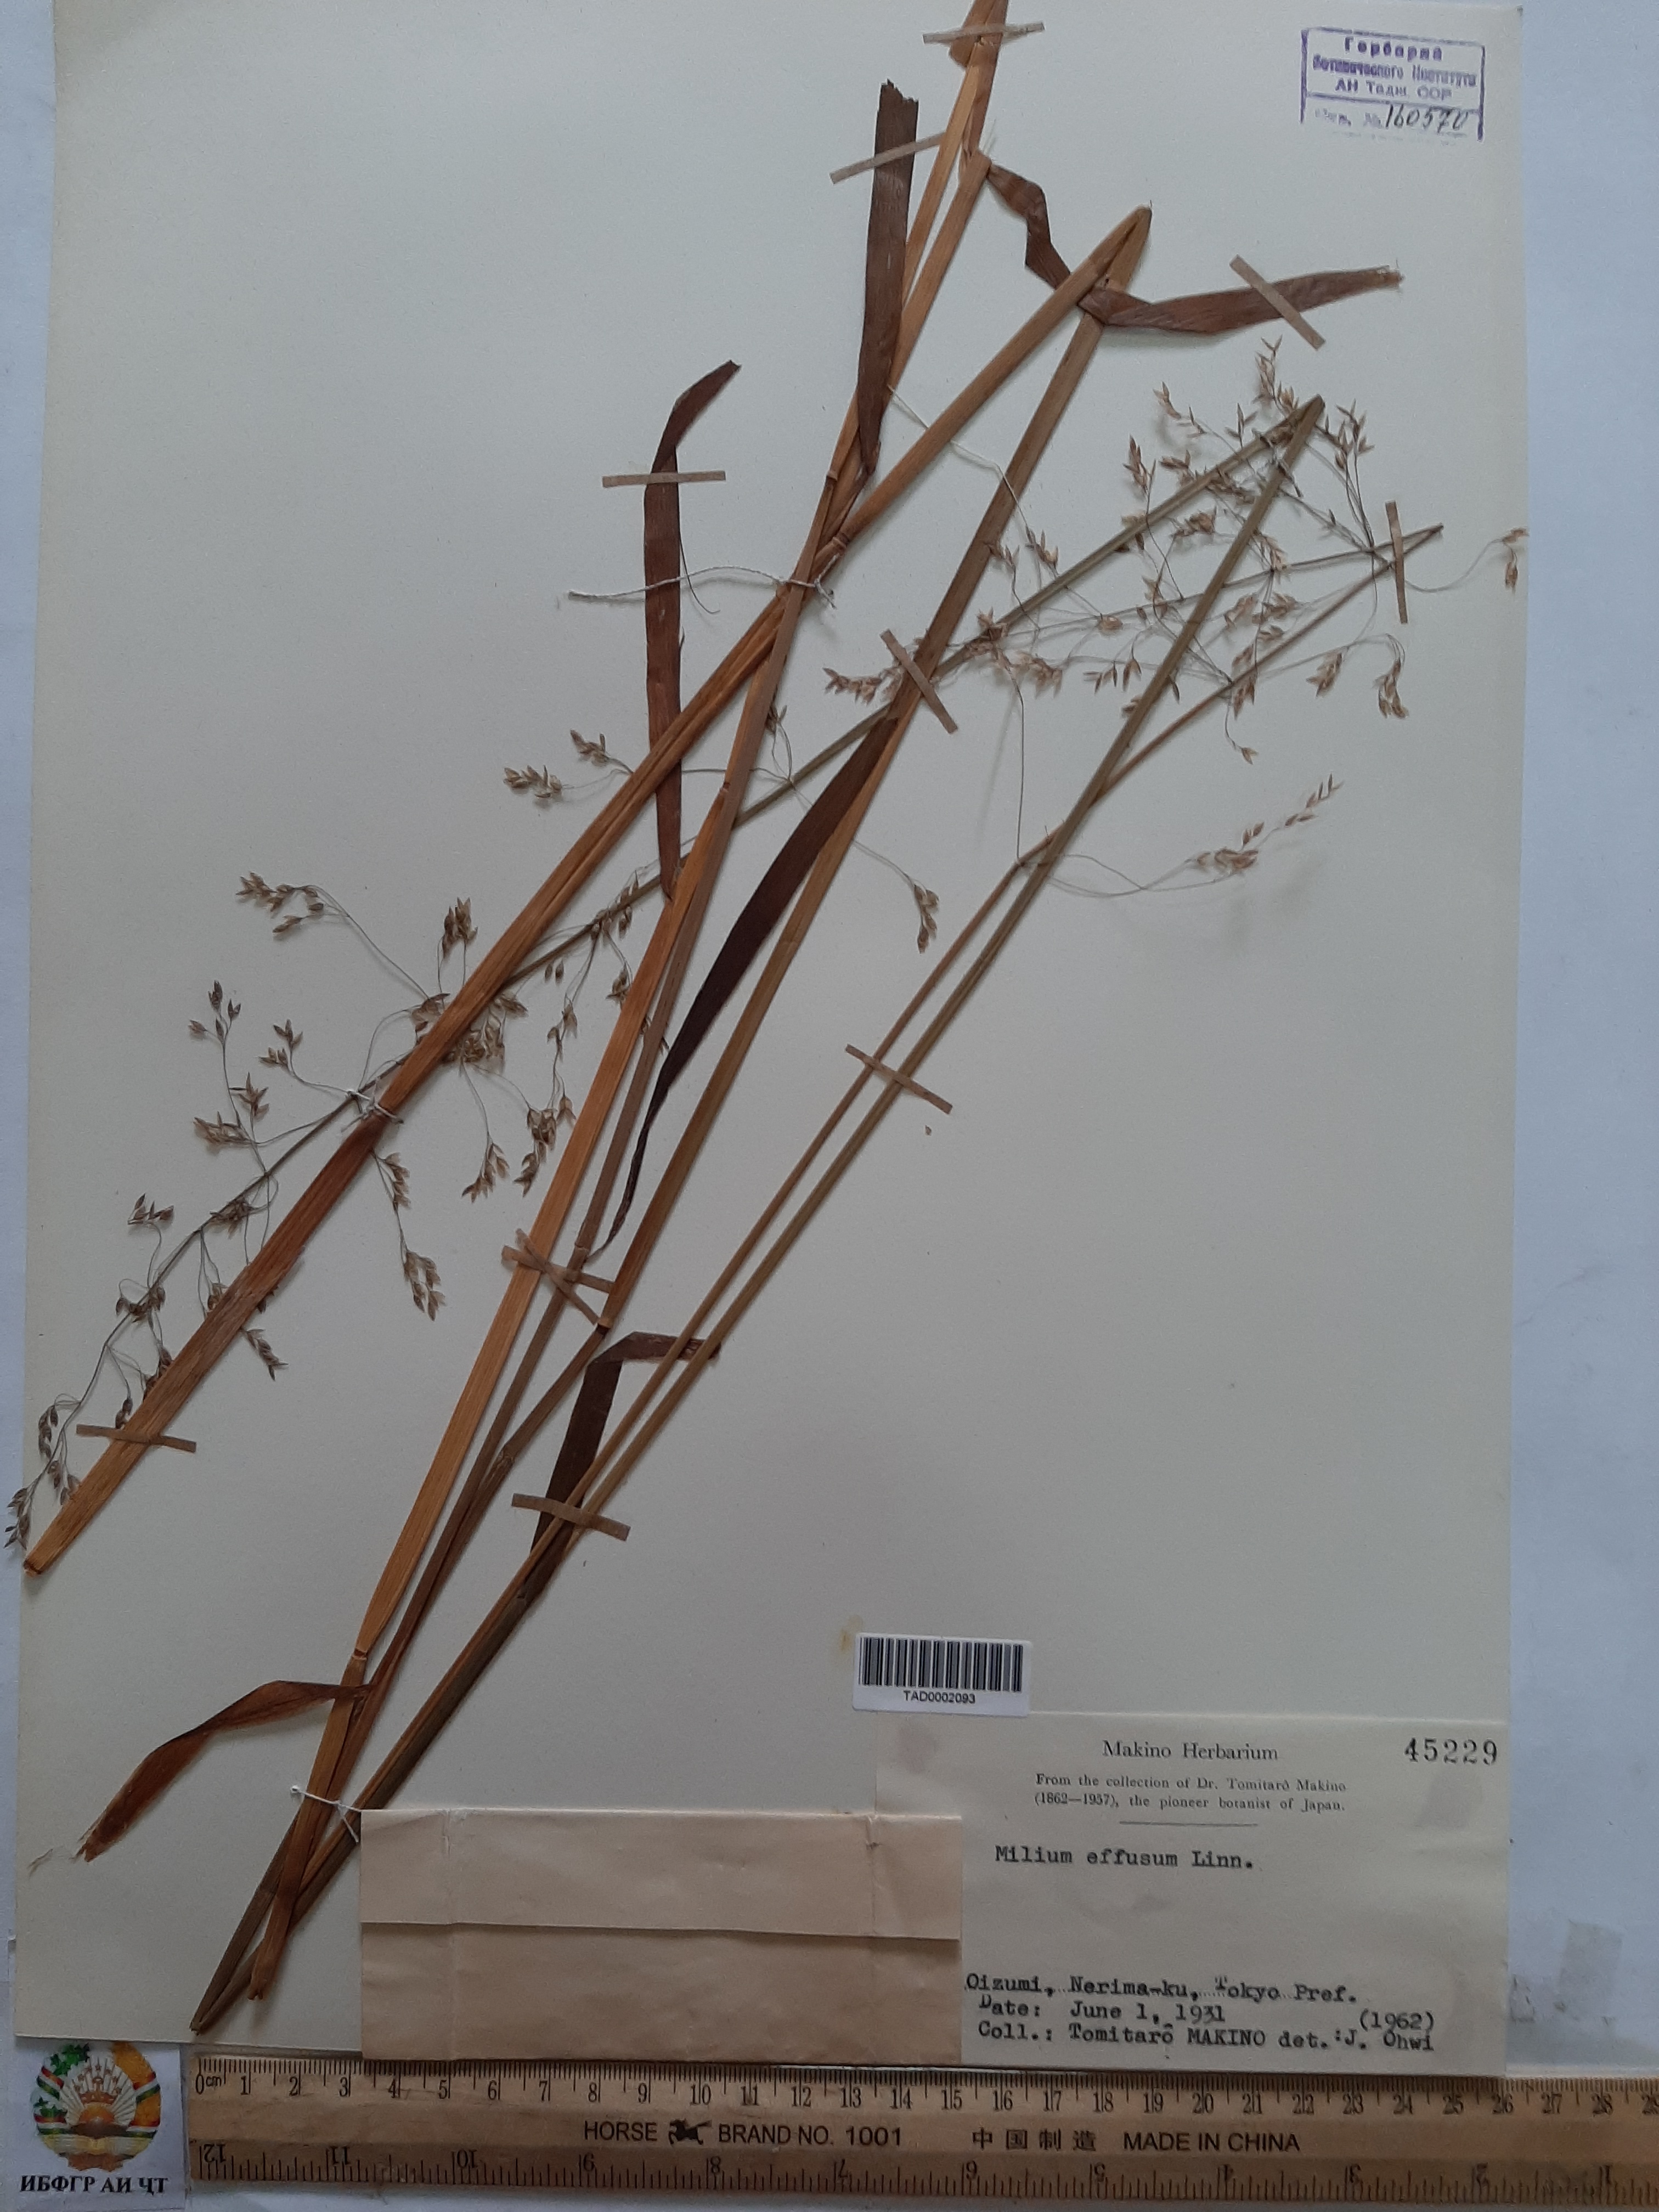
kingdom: Plantae
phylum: Tracheophyta
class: Liliopsida
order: Poales
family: Poaceae
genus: Milium
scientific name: Milium effusum
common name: Wood millet
